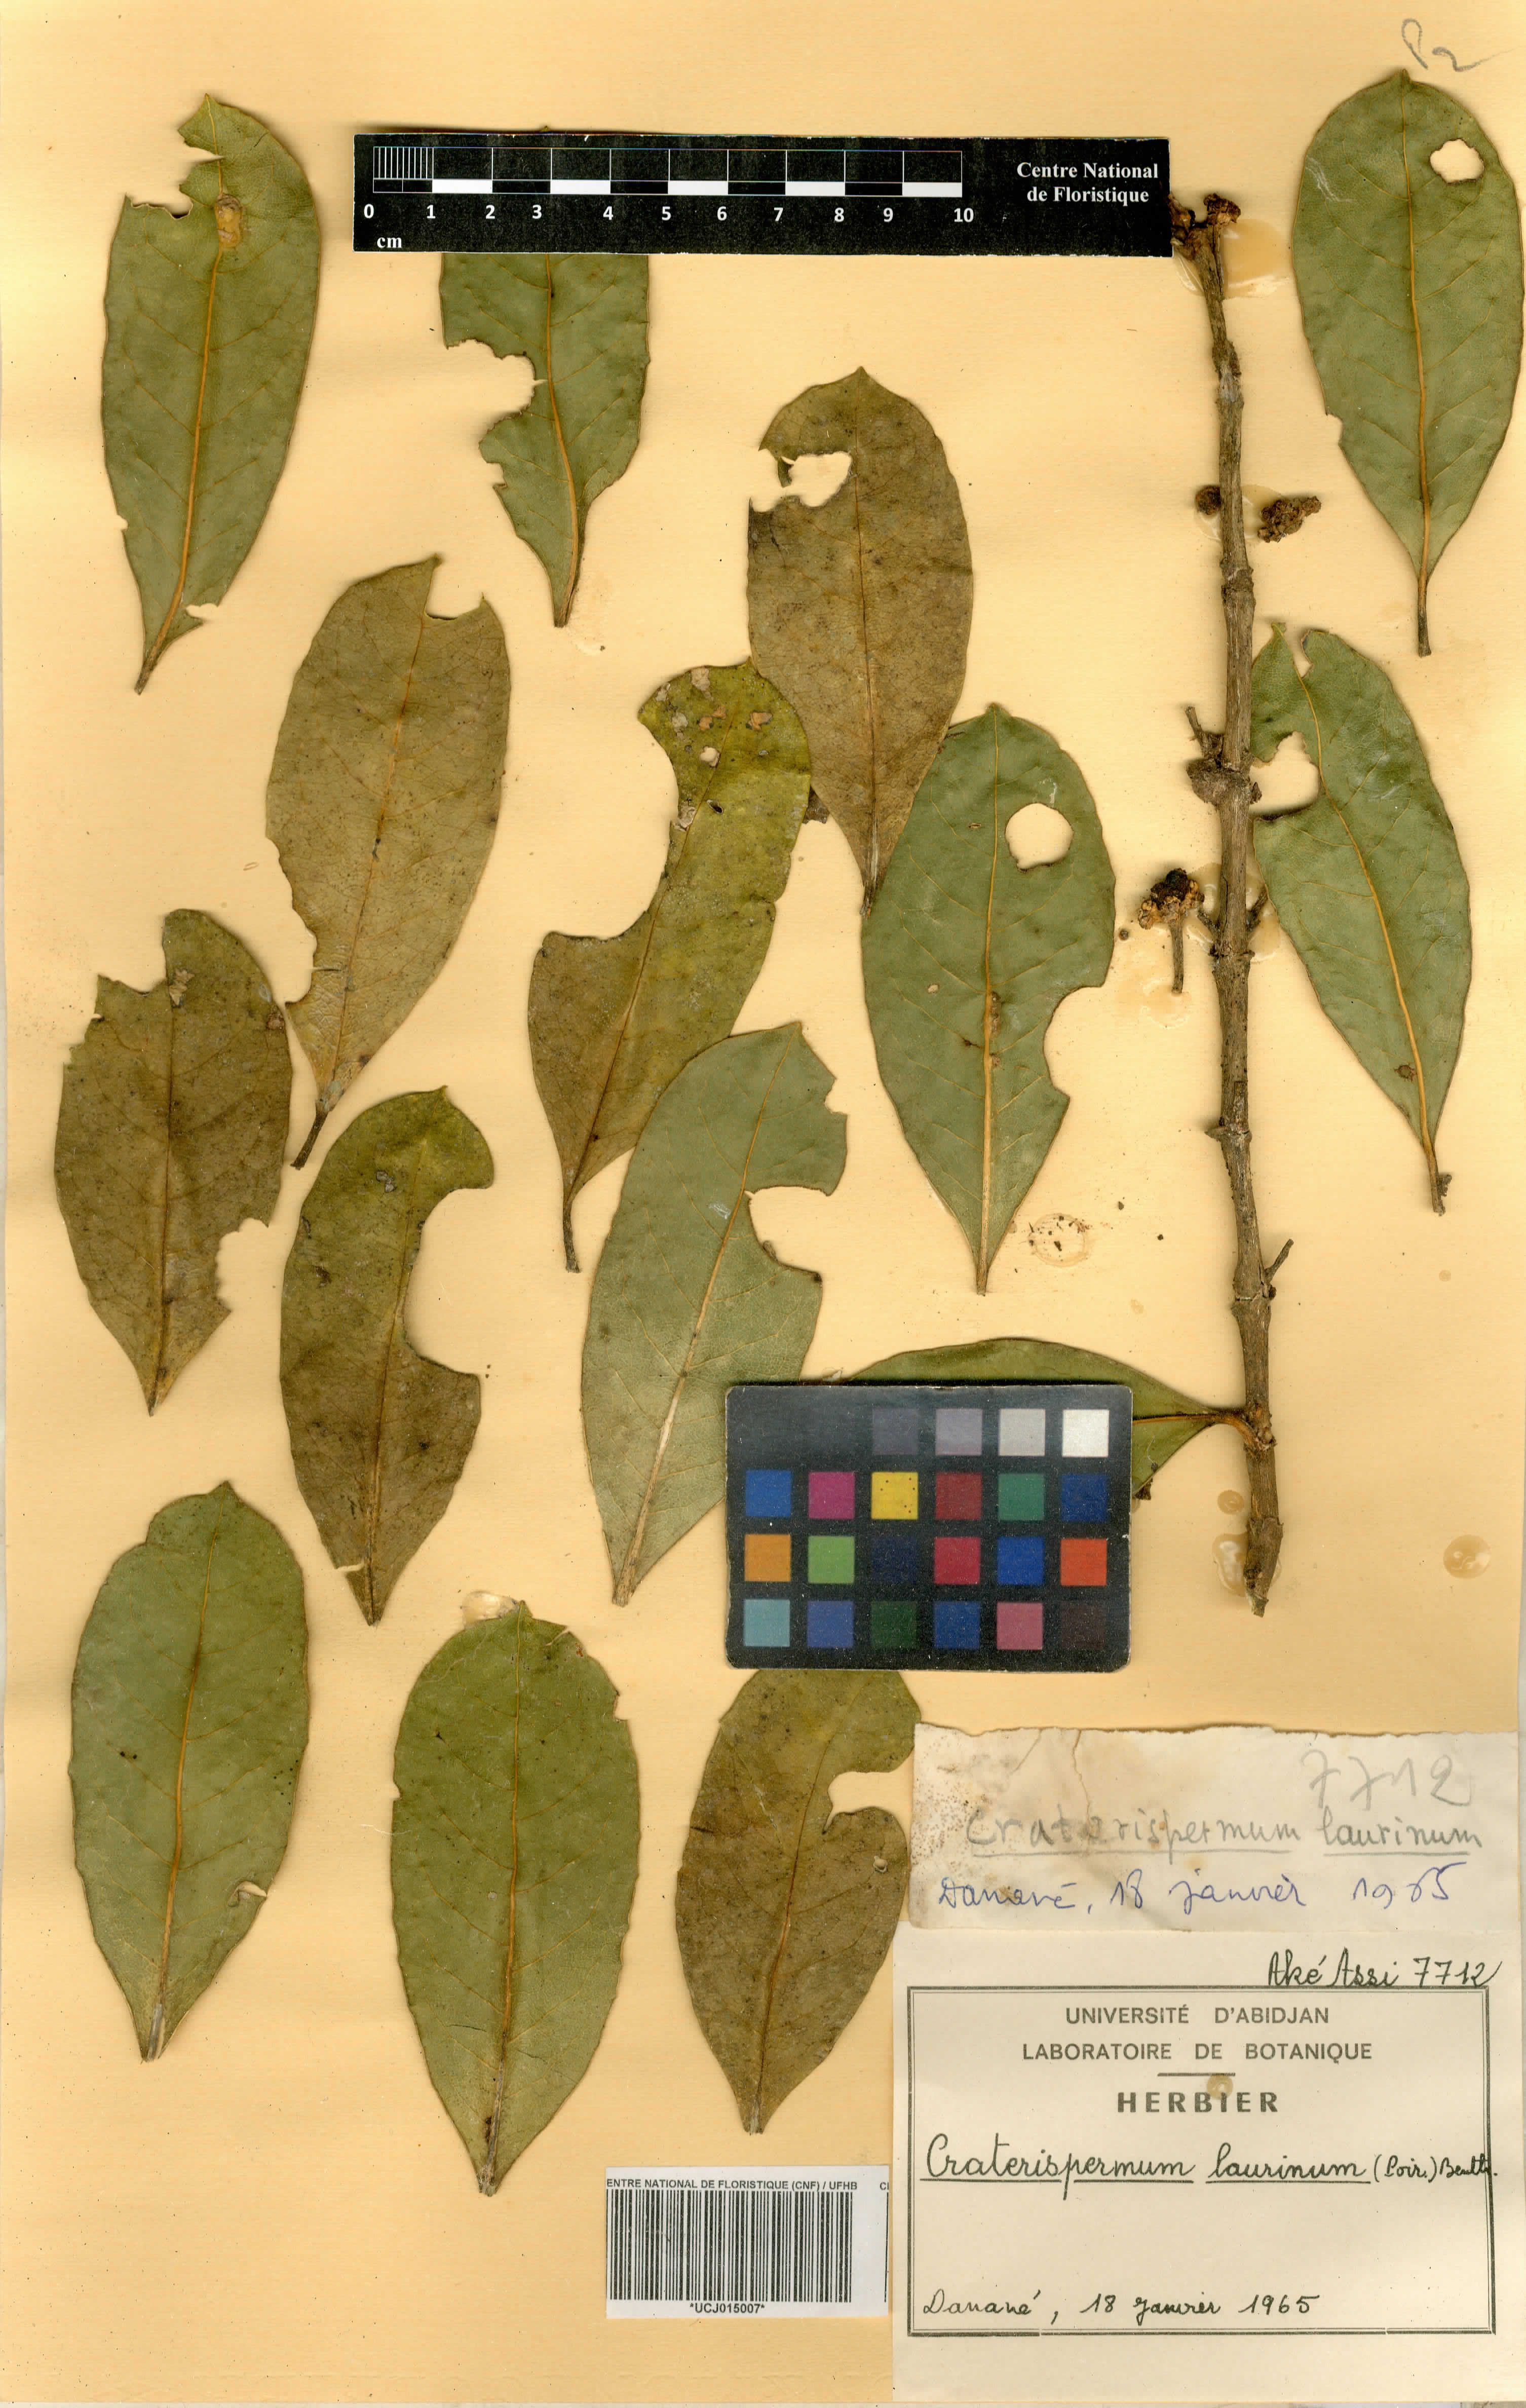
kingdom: Plantae
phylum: Tracheophyta
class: Magnoliopsida
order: Gentianales
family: Rubiaceae
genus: Craterispermum
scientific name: Craterispermum laurinum
